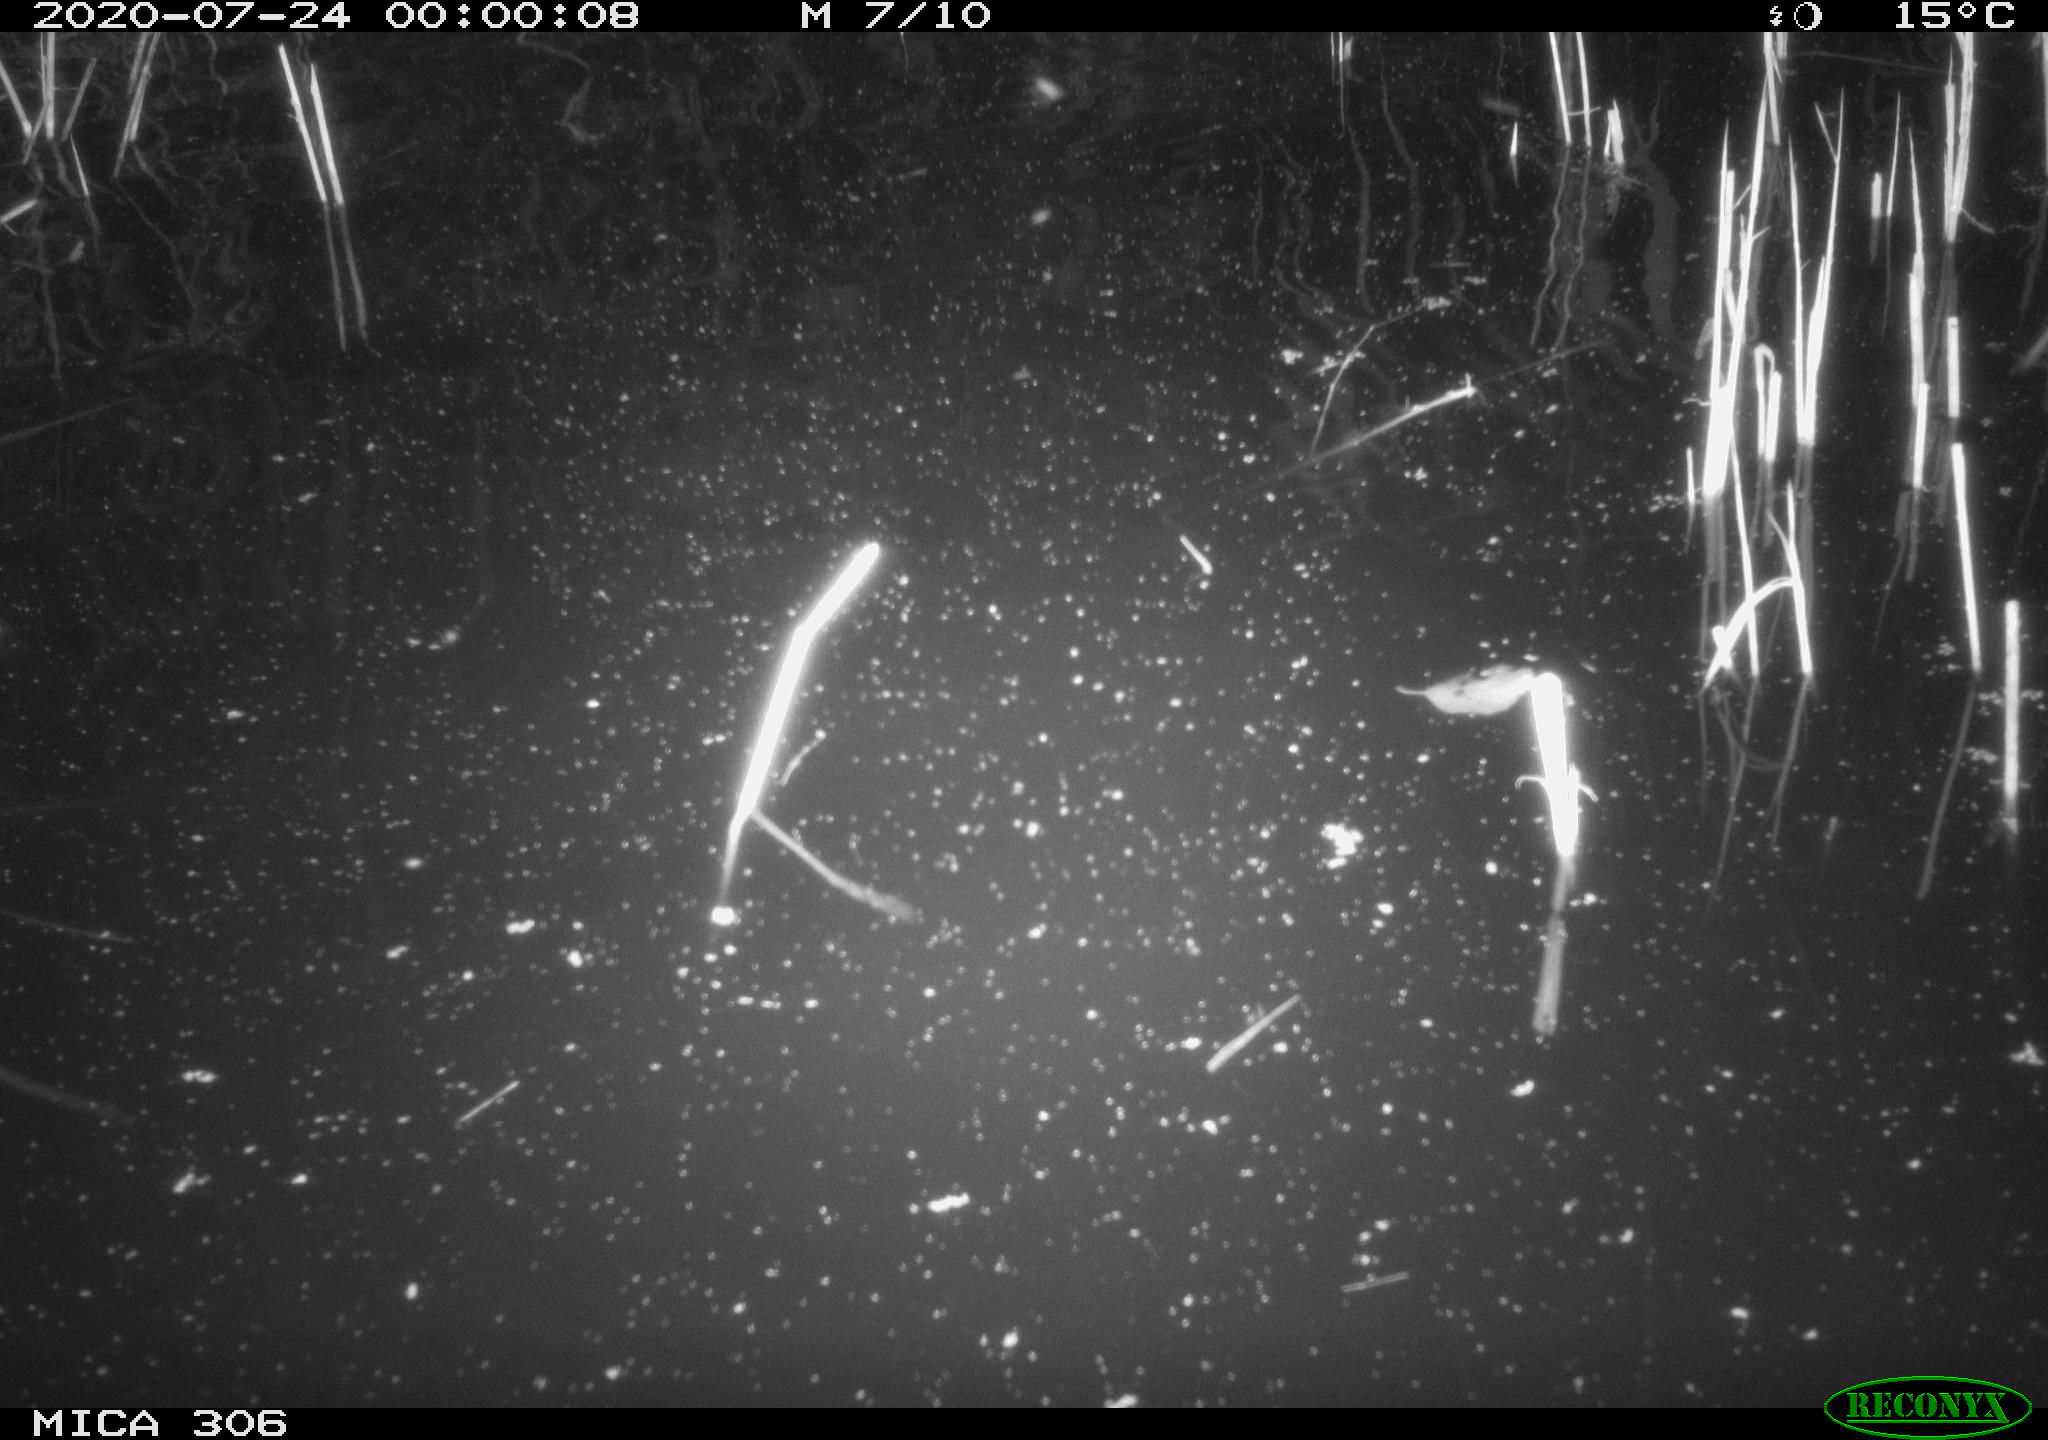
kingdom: Animalia
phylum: Chordata
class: Mammalia
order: Rodentia
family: Cricetidae
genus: Ondatra
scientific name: Ondatra zibethicus
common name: Muskrat
